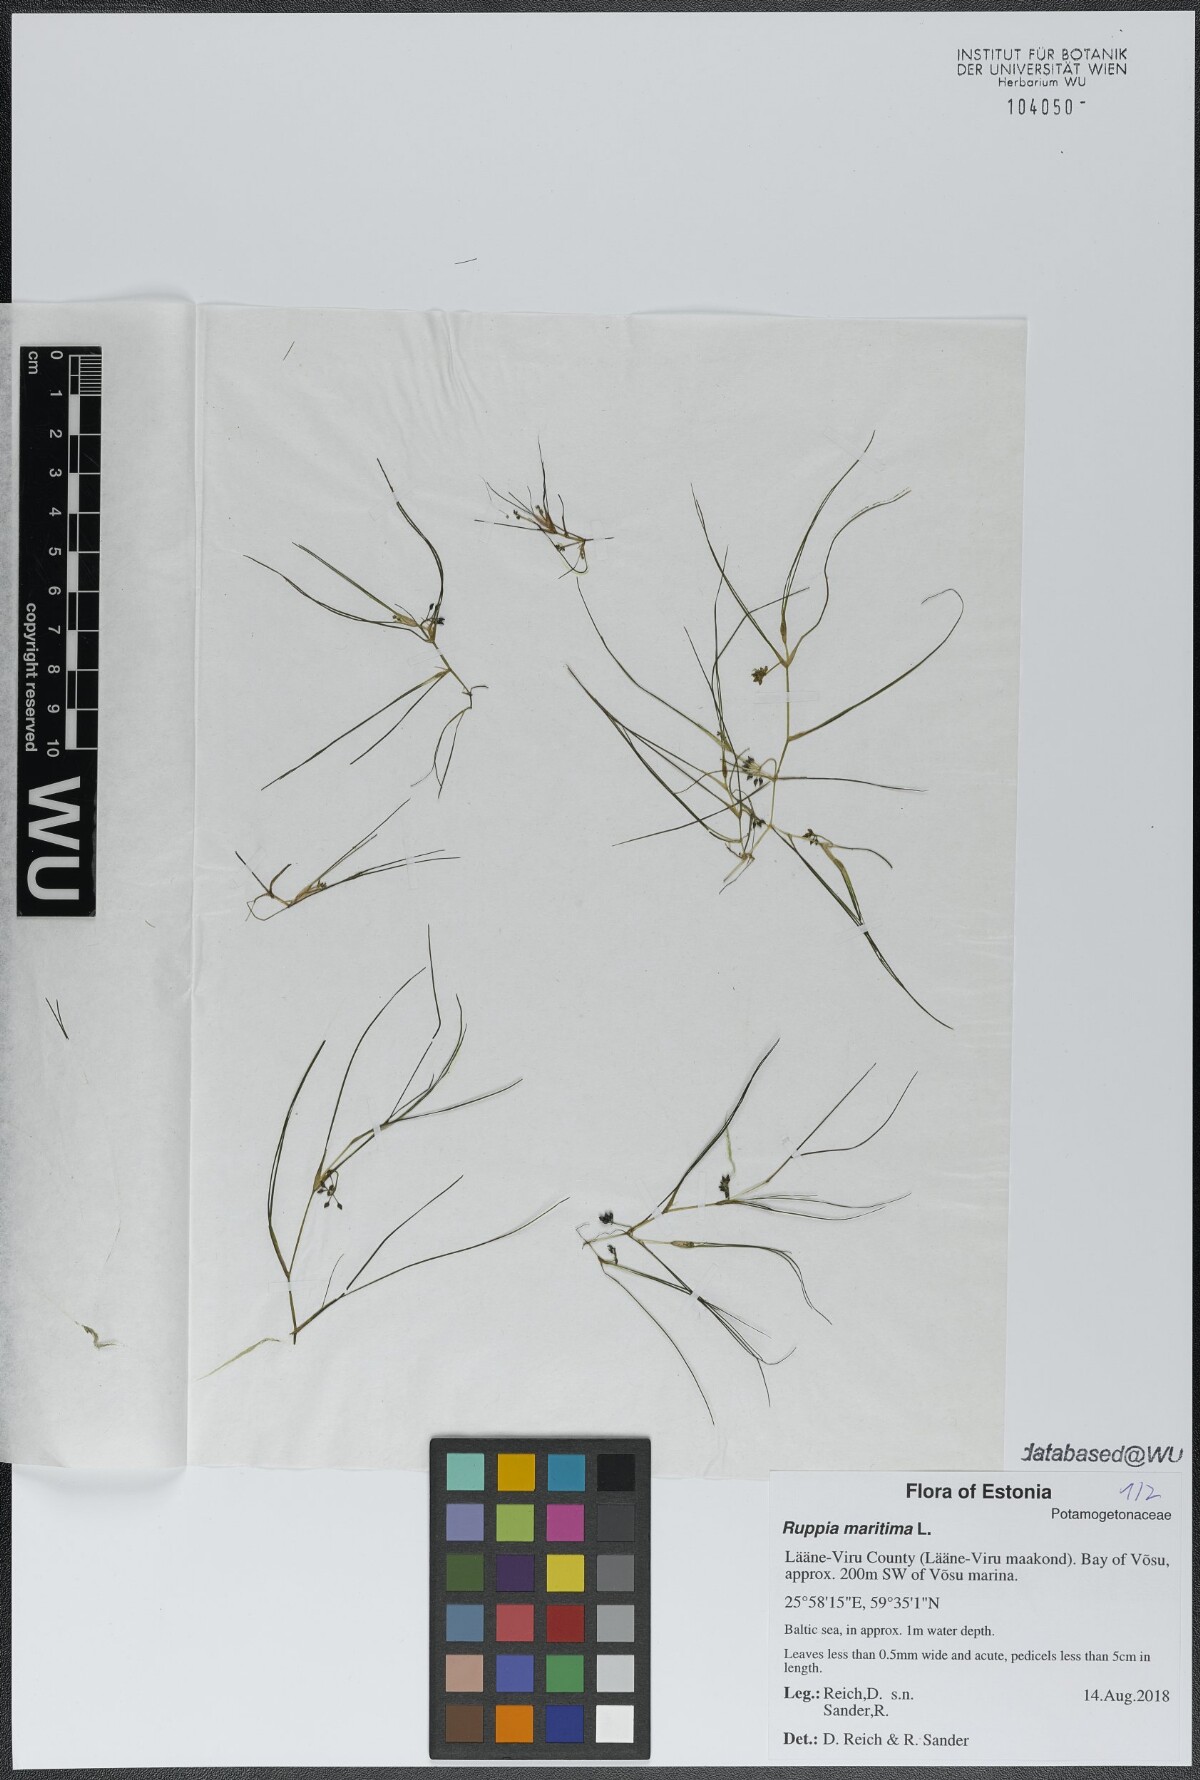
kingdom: Plantae
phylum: Tracheophyta
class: Liliopsida
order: Alismatales
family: Ruppiaceae
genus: Ruppia
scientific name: Ruppia maritima
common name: Beaked tasselweed
